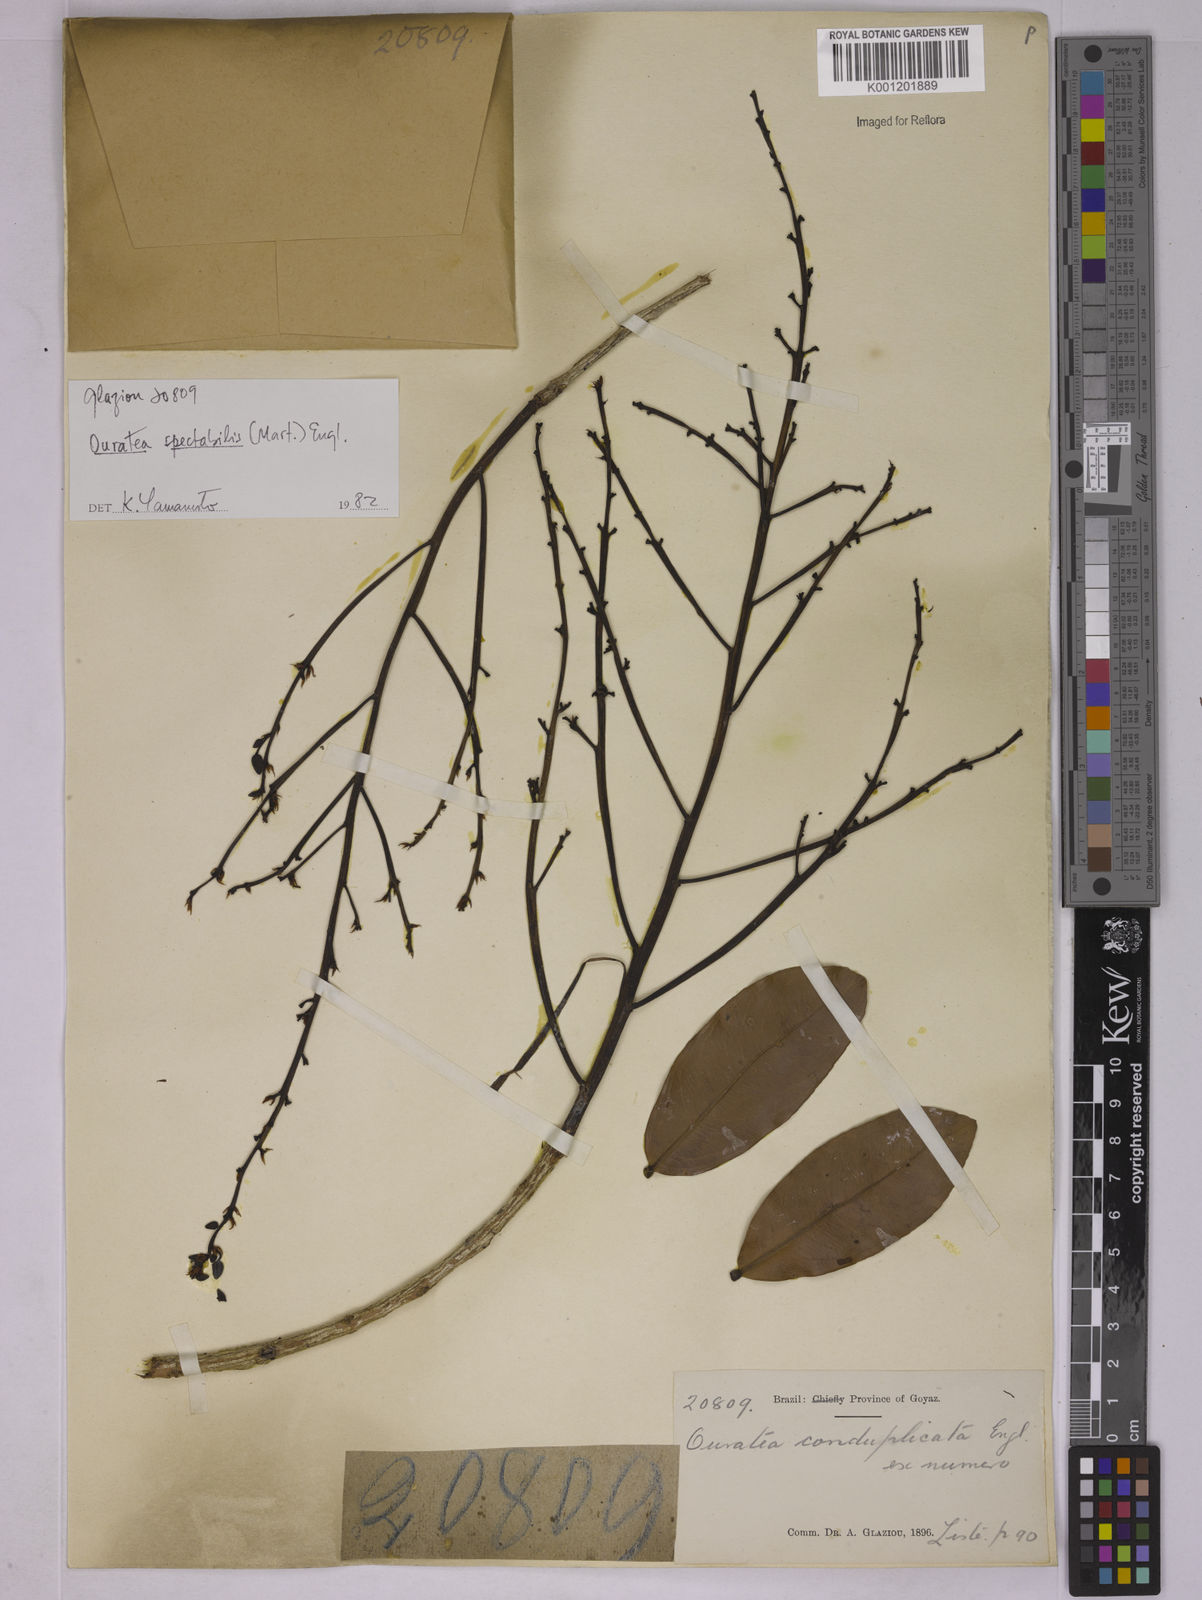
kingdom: Plantae
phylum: Tracheophyta
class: Magnoliopsida
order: Malpighiales
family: Ochnaceae
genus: Ouratea
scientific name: Ouratea spectabilis
